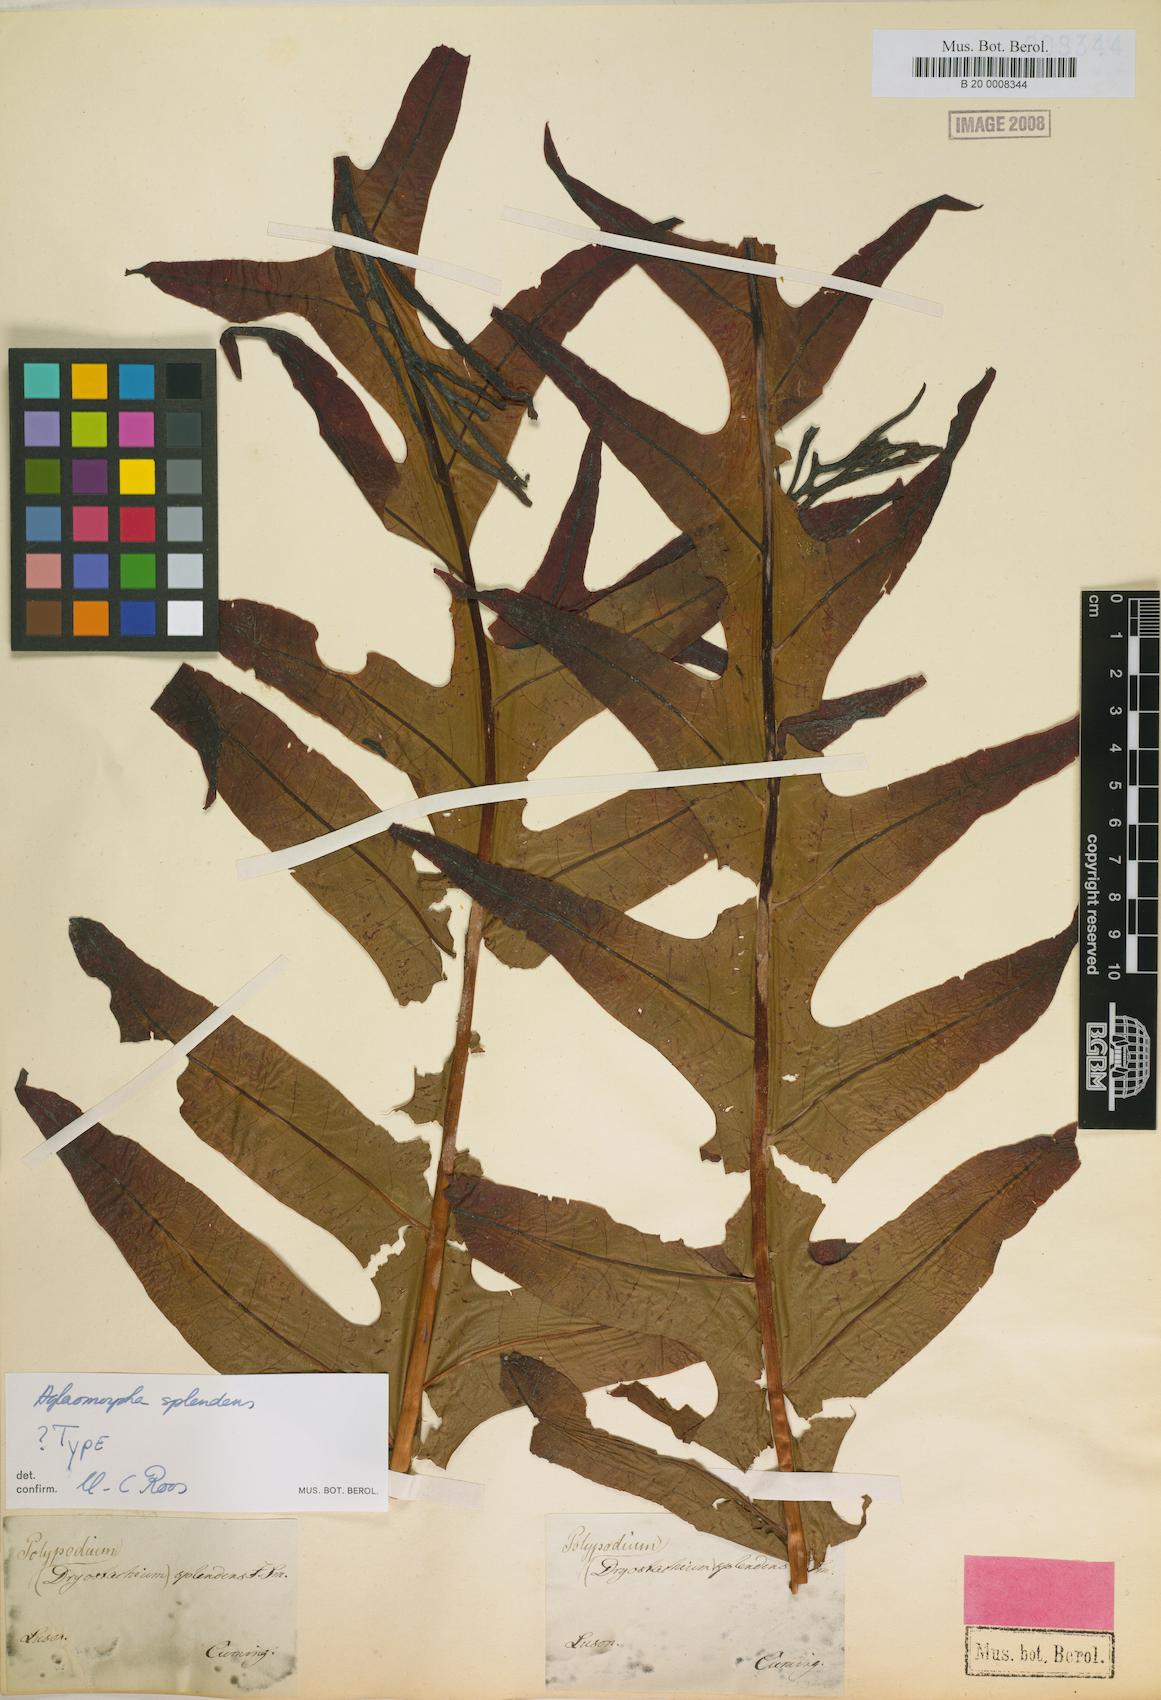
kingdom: Plantae
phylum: Tracheophyta
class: Polypodiopsida
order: Polypodiales
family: Polypodiaceae
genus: Drynaria
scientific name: Drynaria splendens
